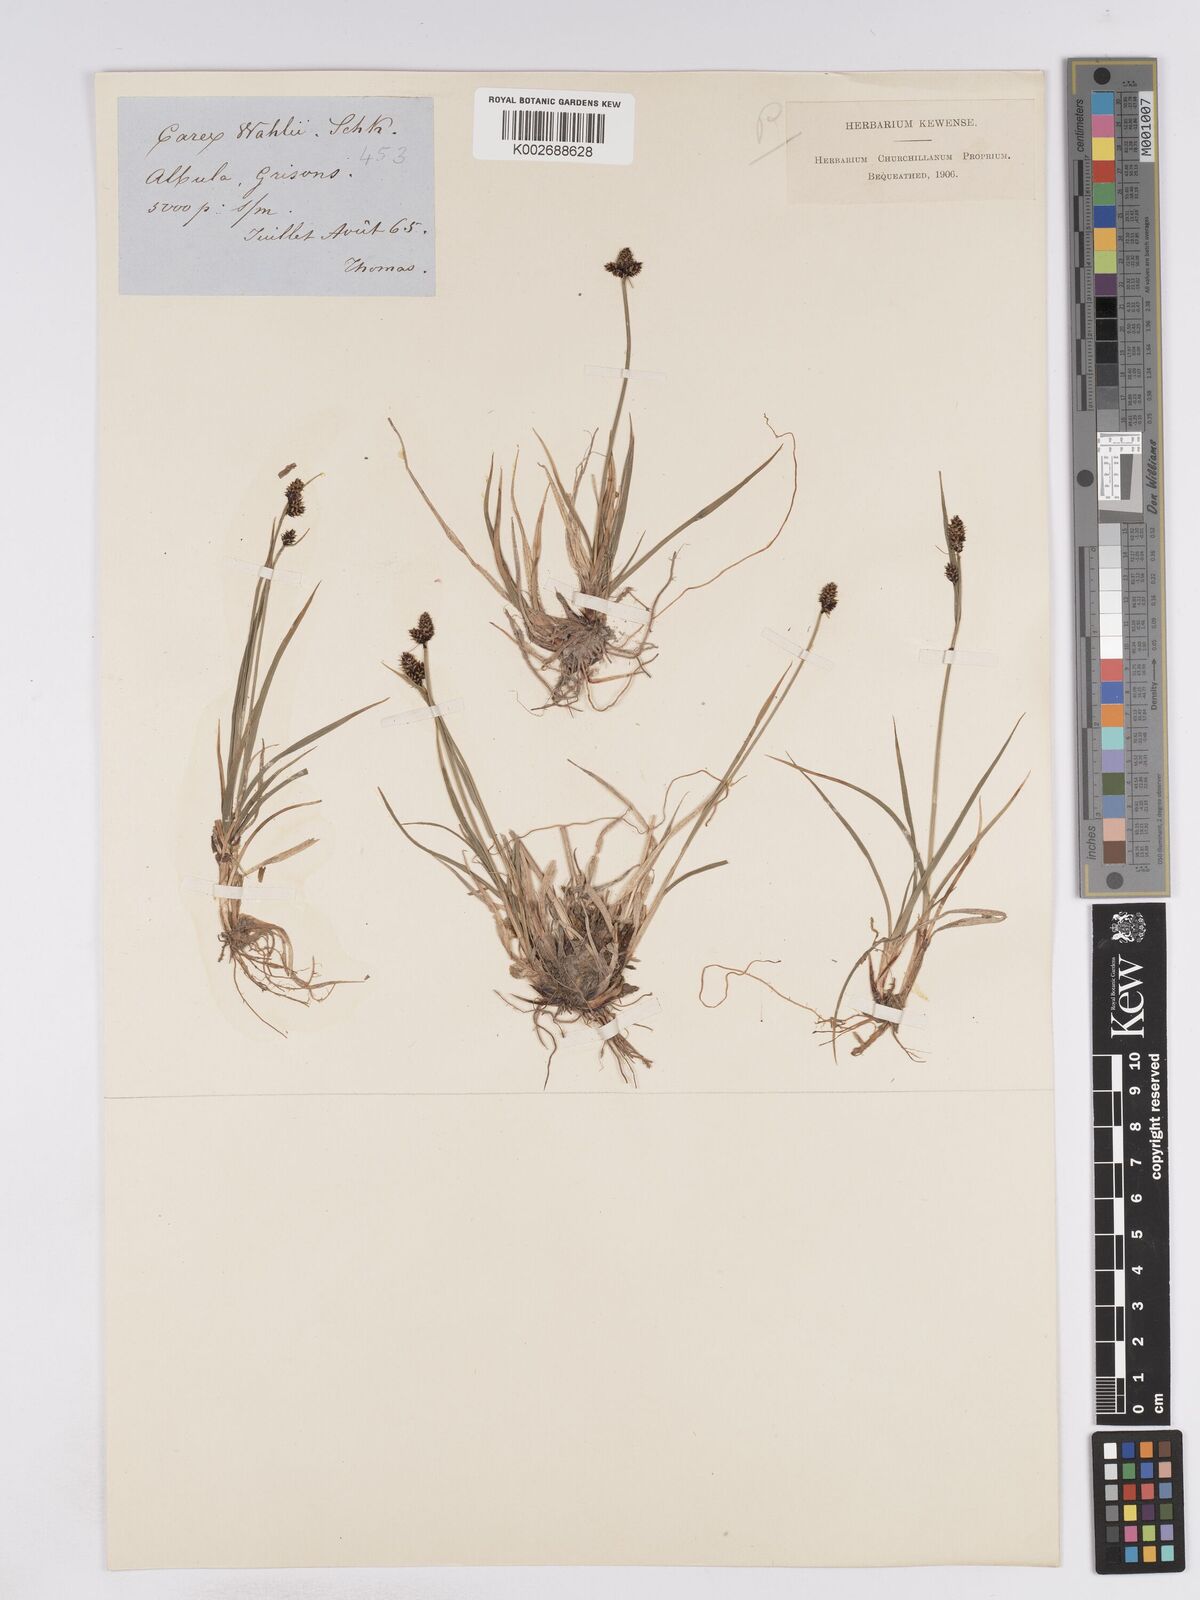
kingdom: Plantae
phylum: Tracheophyta
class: Liliopsida
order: Poales
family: Cyperaceae
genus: Carex
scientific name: Carex norvegica
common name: Close-headed alpine-sedge
